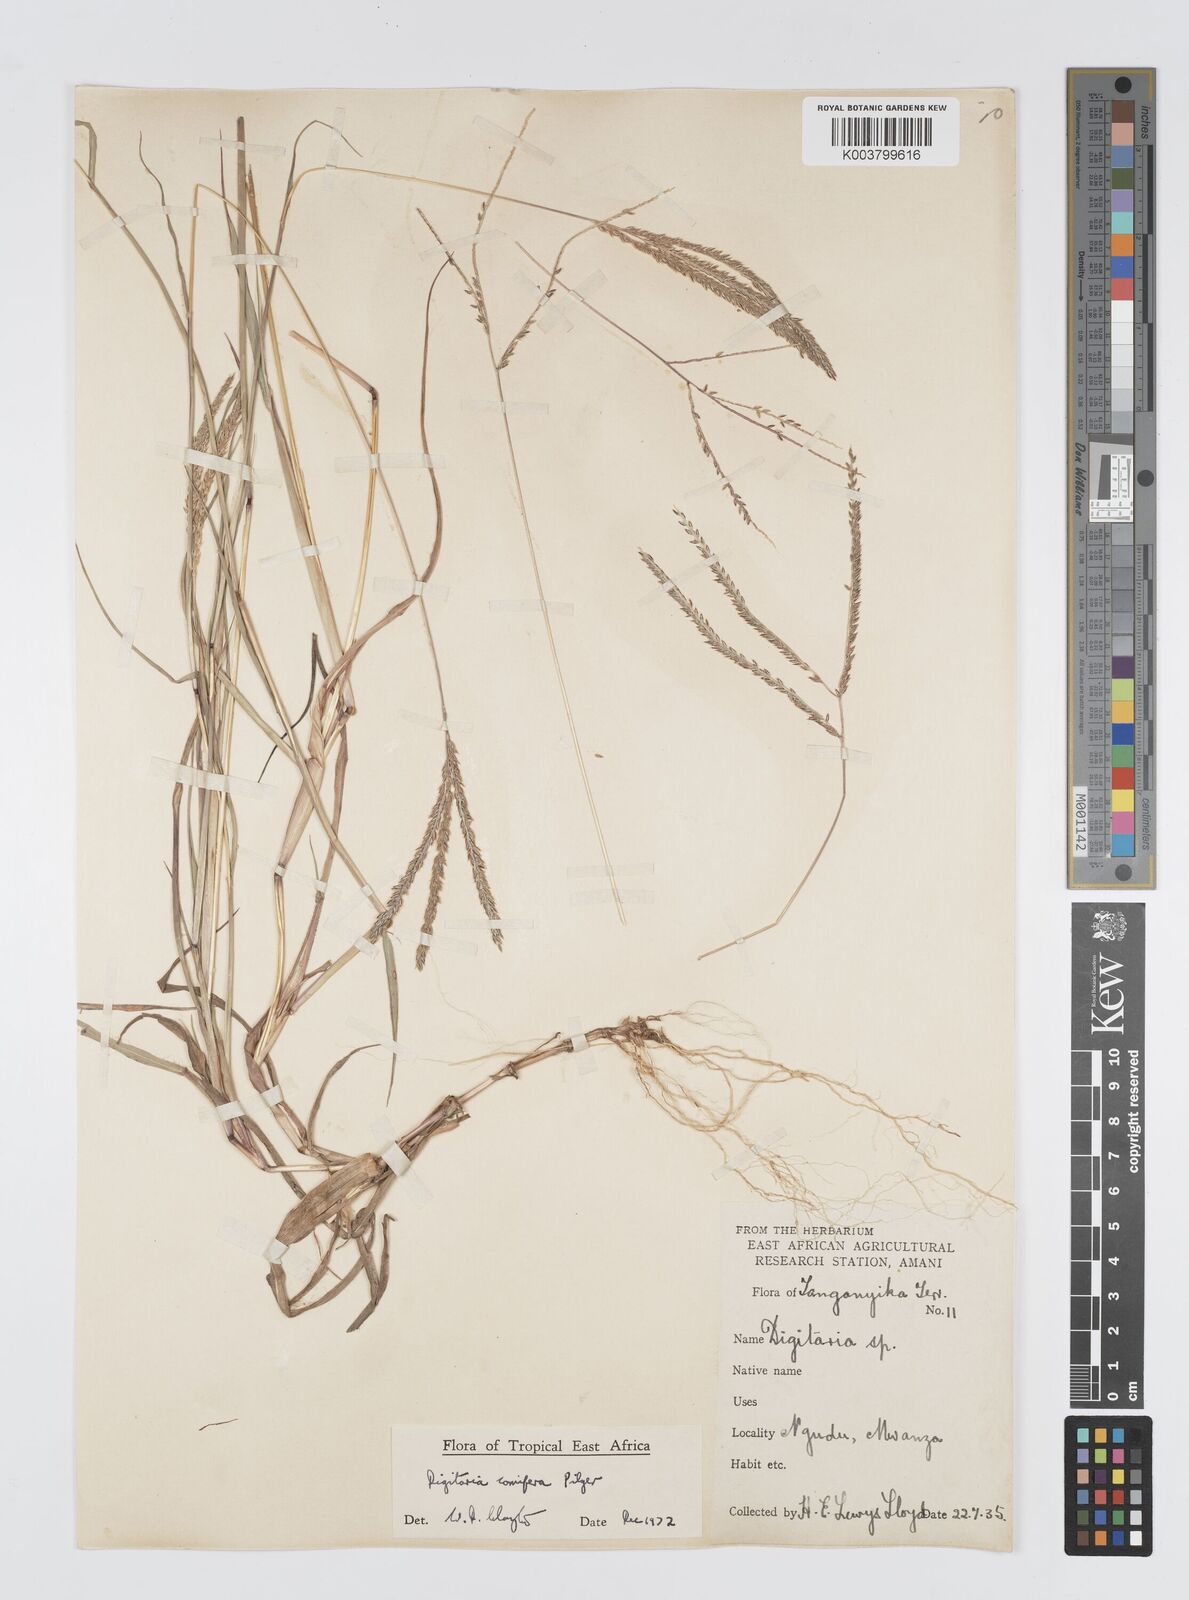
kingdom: Plantae
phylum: Tracheophyta
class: Liliopsida
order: Poales
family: Poaceae
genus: Digitaria
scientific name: Digitaria comifera
